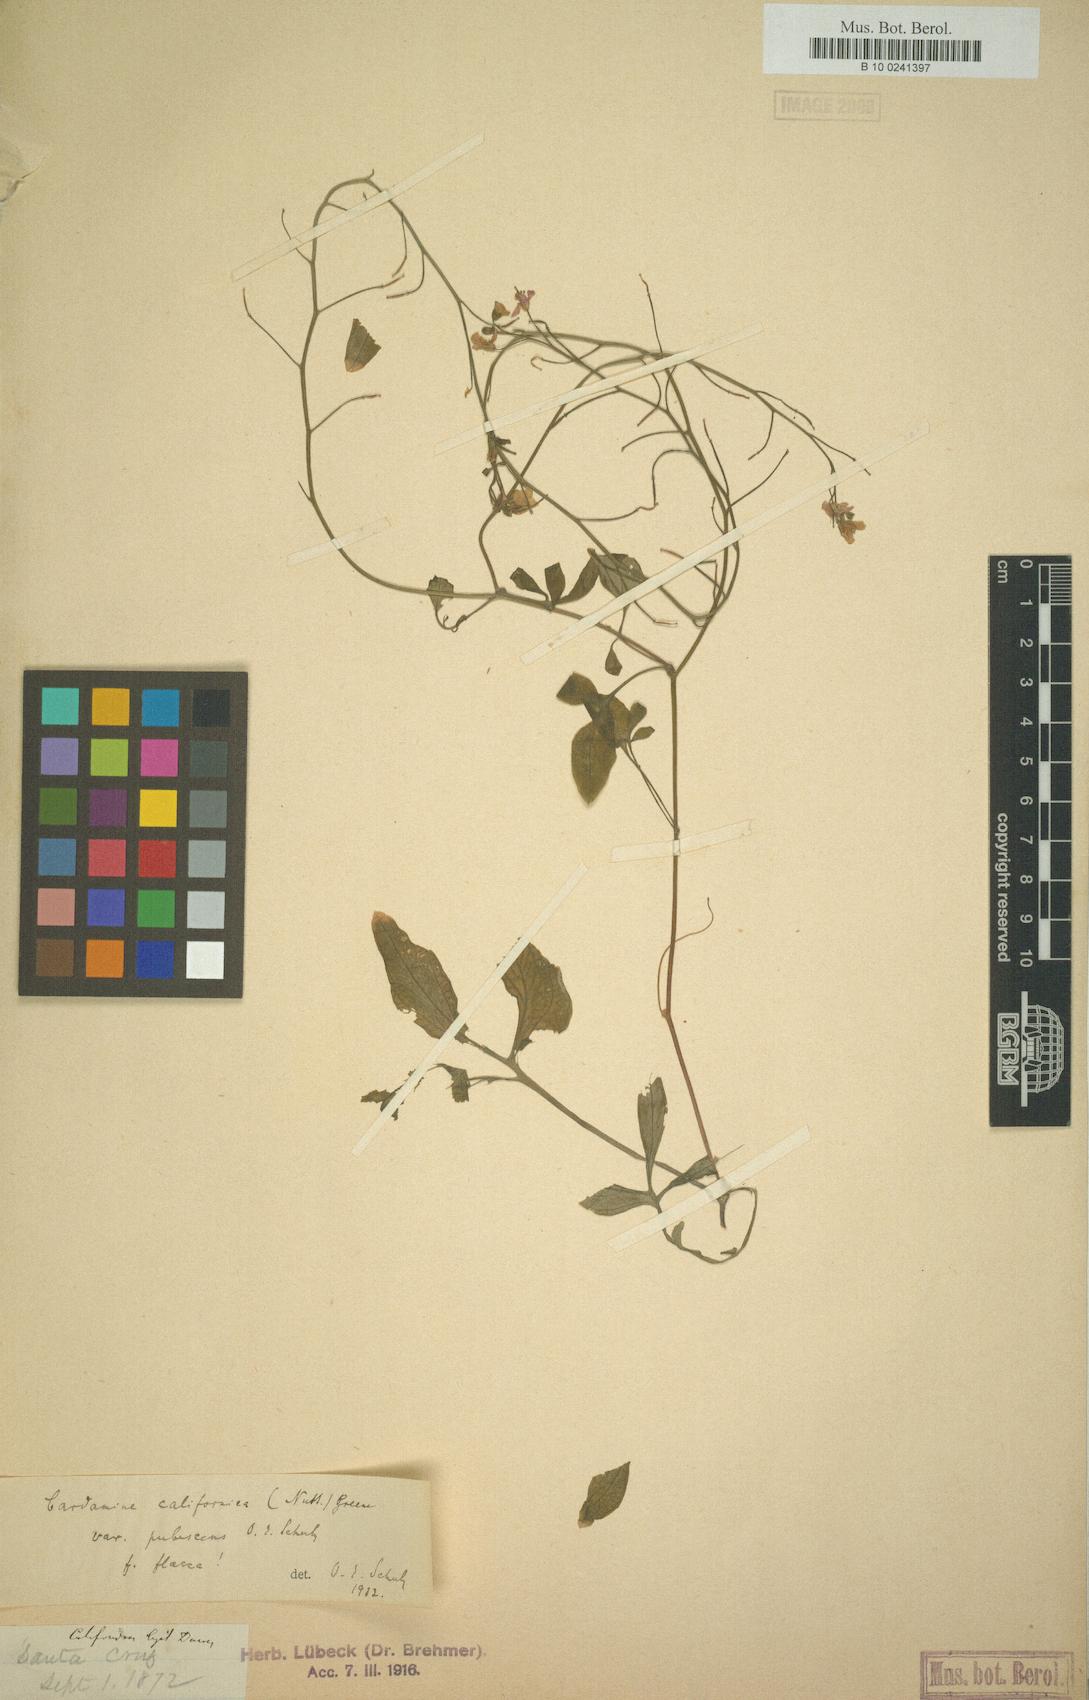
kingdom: Plantae
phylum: Tracheophyta
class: Magnoliopsida
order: Brassicales
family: Brassicaceae
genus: Cardamine
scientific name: Cardamine californica
